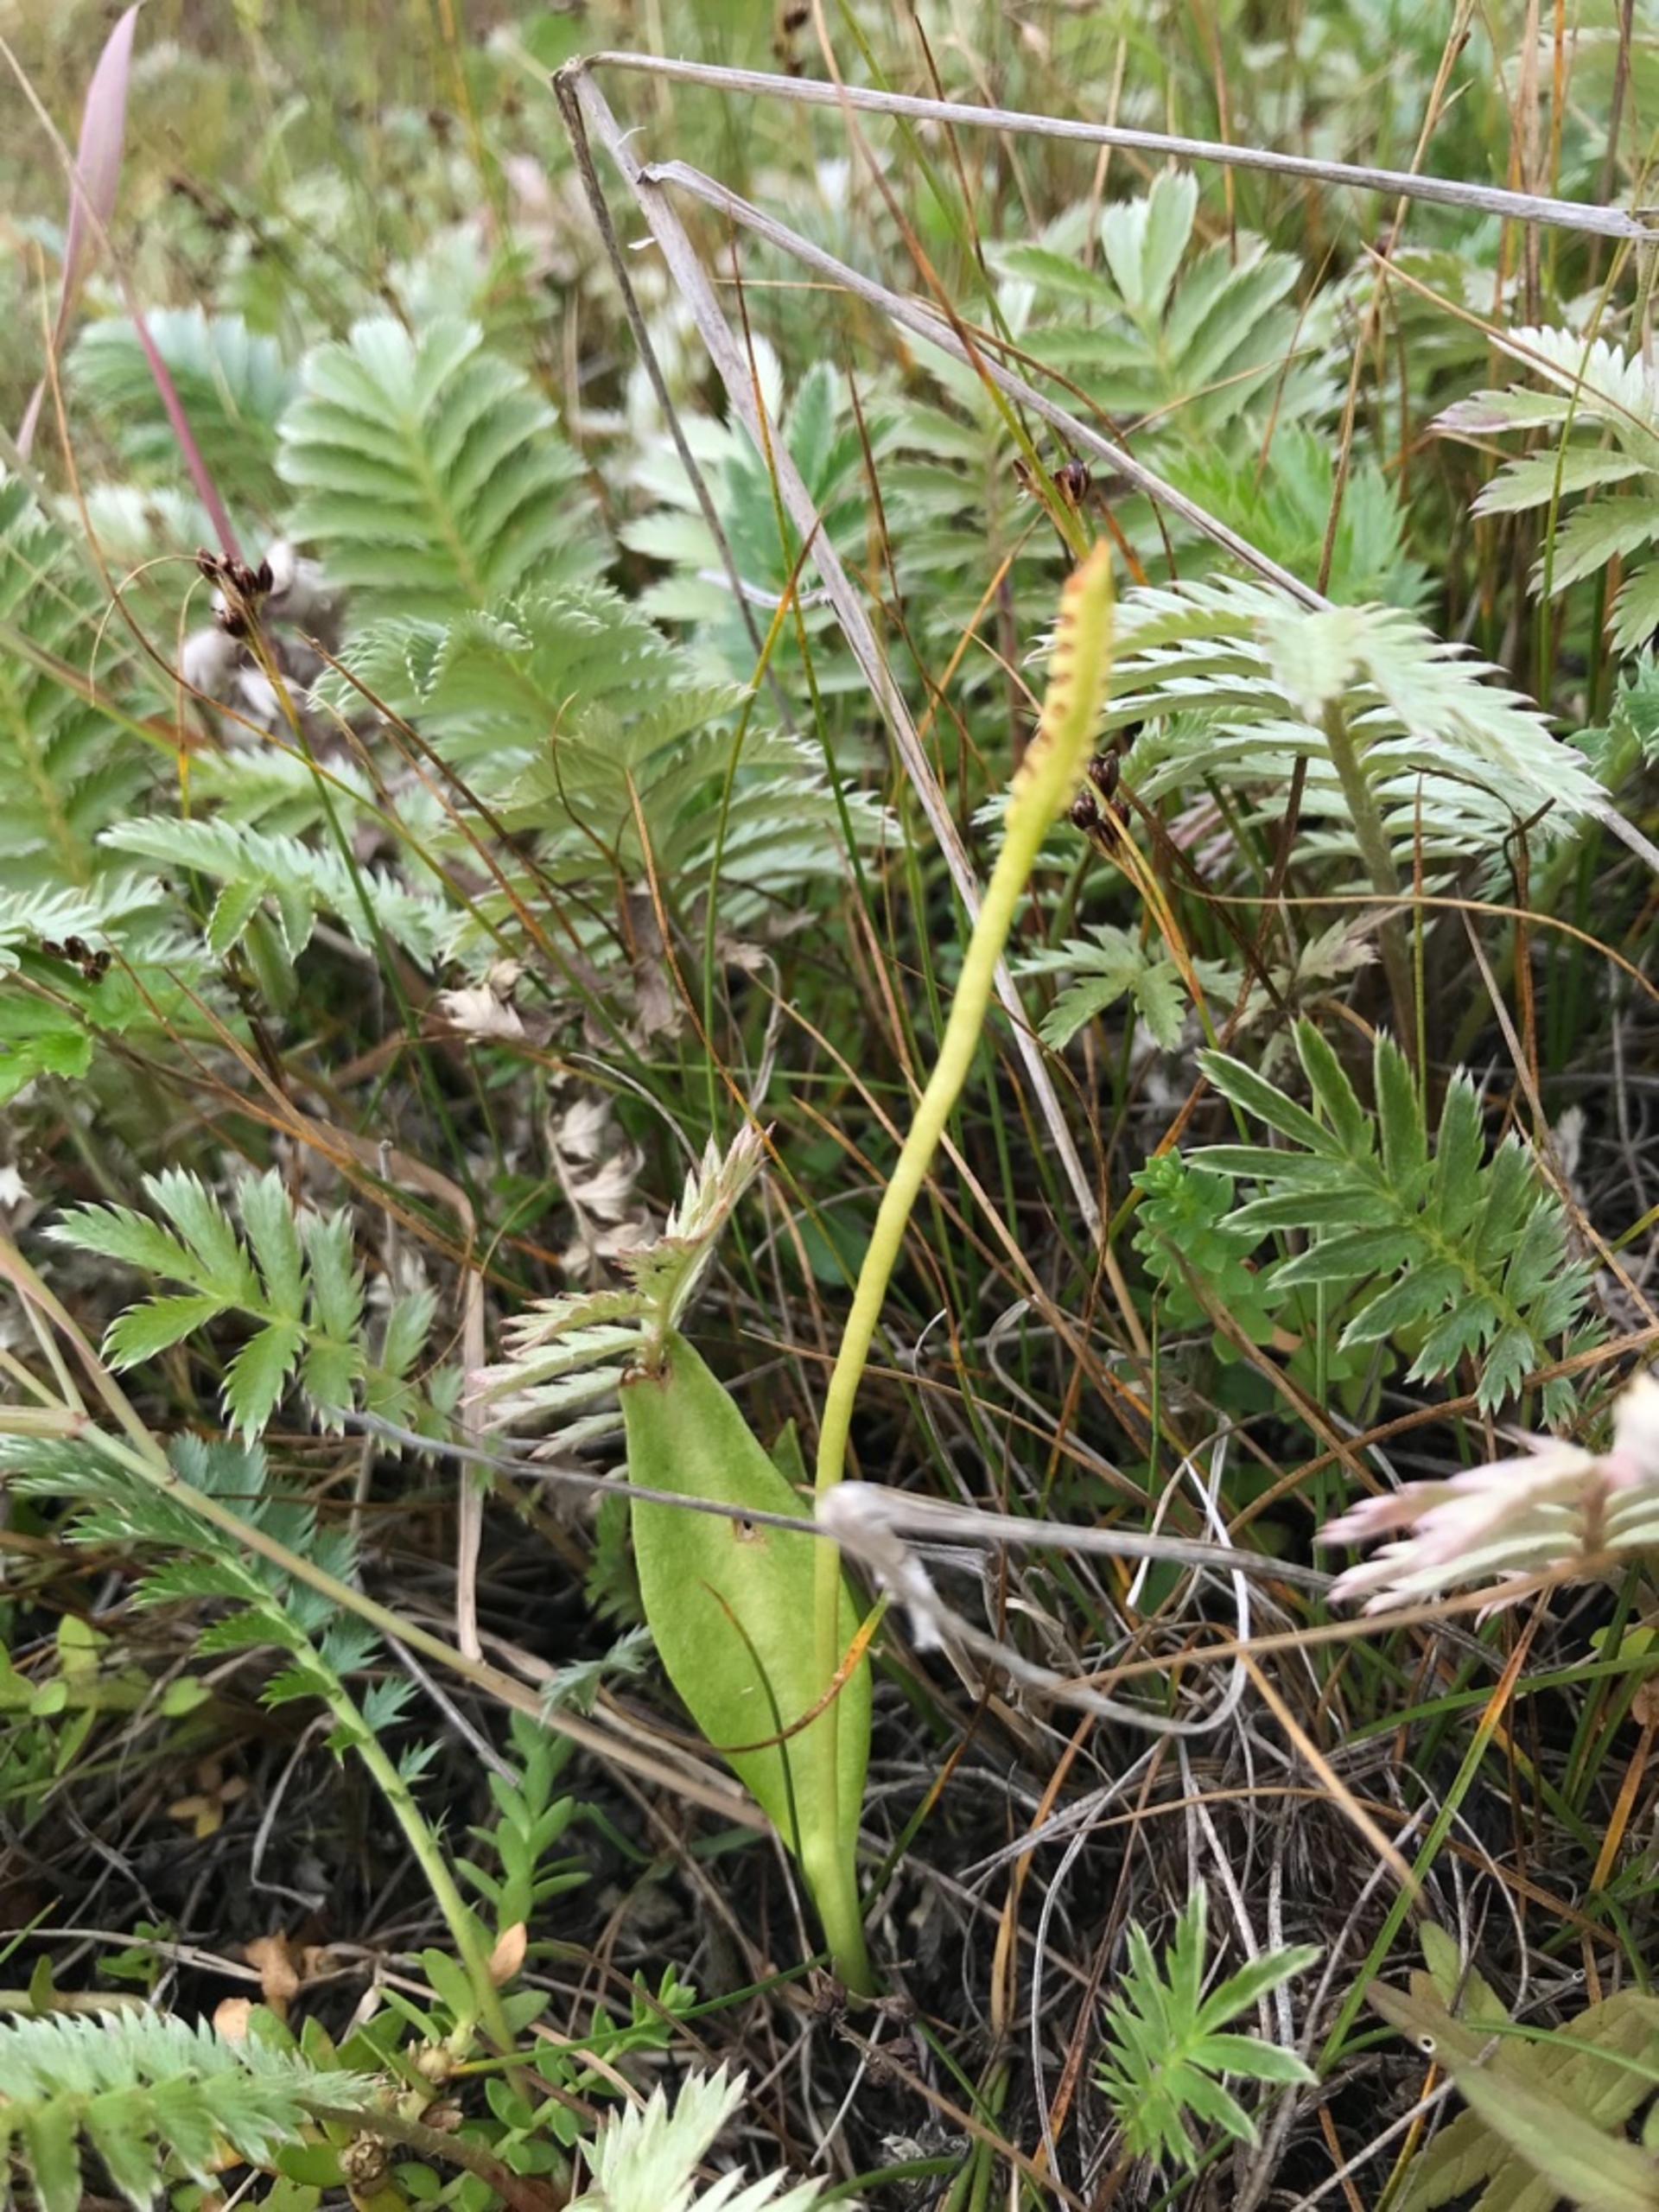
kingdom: Plantae
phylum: Tracheophyta
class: Polypodiopsida
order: Ophioglossales
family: Ophioglossaceae
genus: Ophioglossum
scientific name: Ophioglossum vulgatum
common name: Slangetunge
